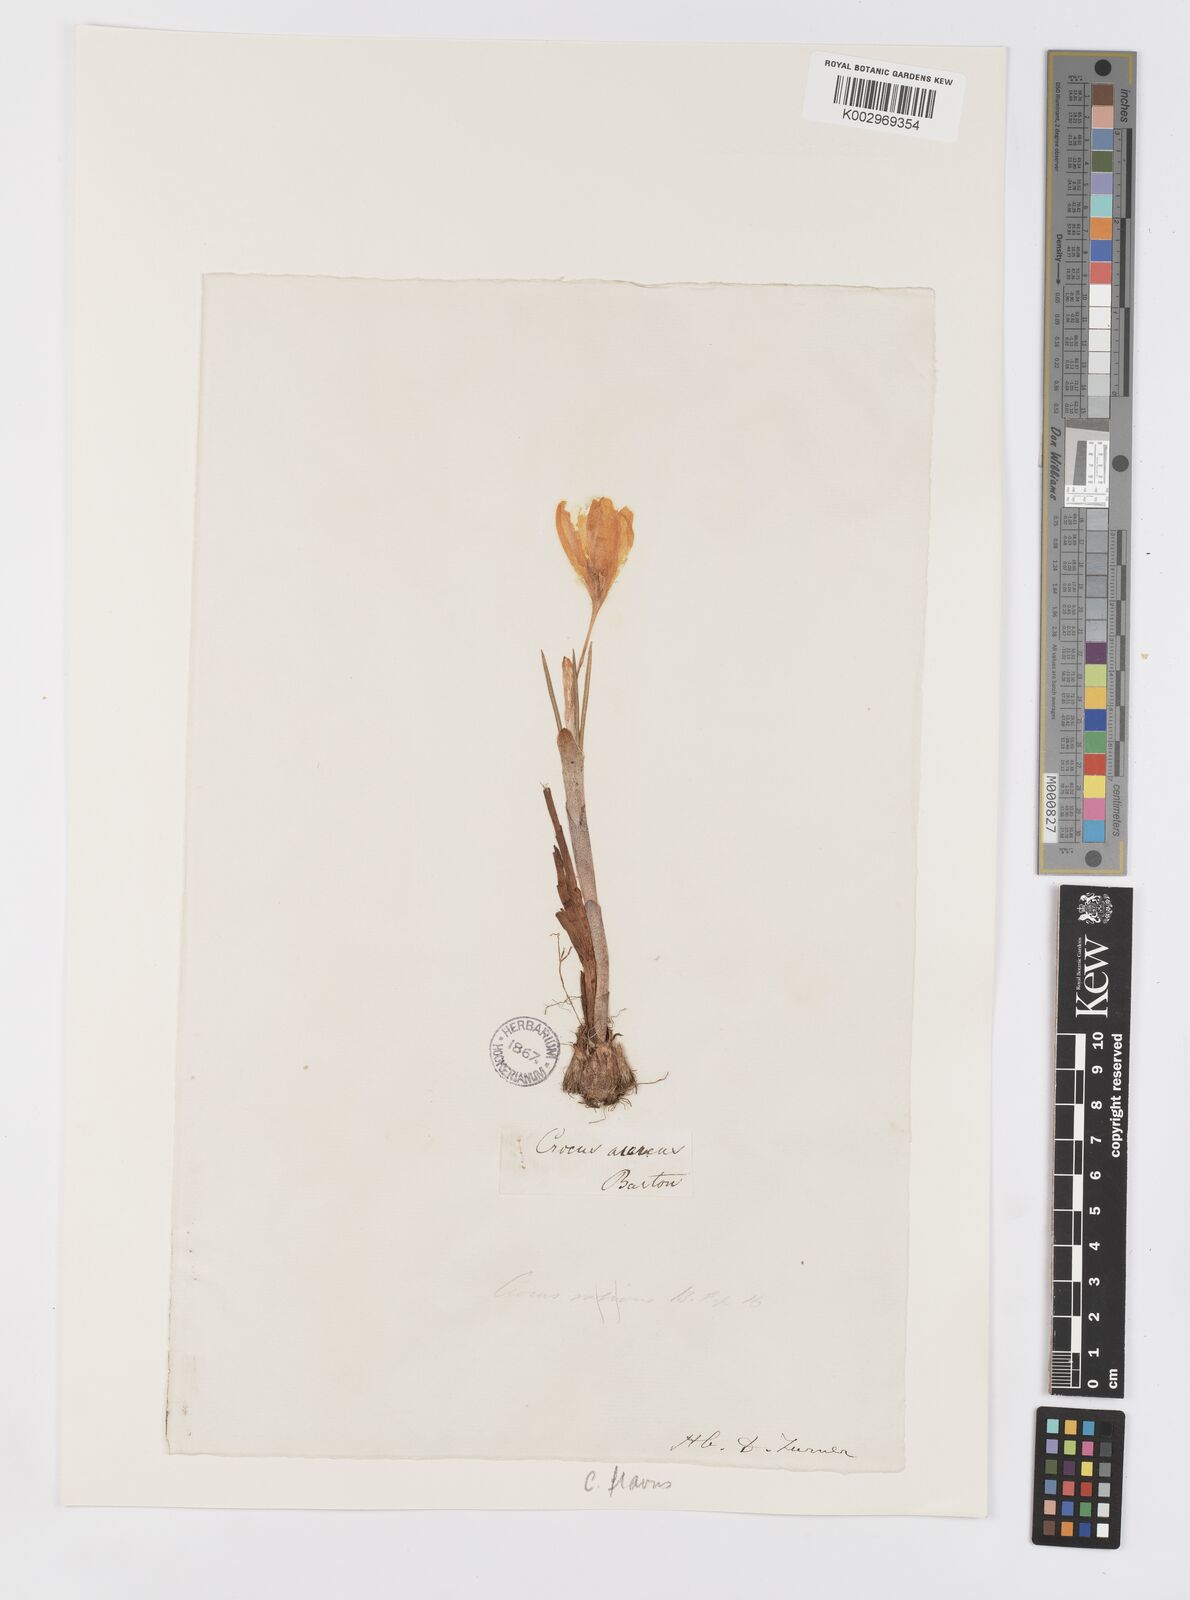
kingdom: Plantae
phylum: Tracheophyta
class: Liliopsida
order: Asparagales
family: Iridaceae
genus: Crocus
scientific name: Crocus flavus
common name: Yellow crocus
